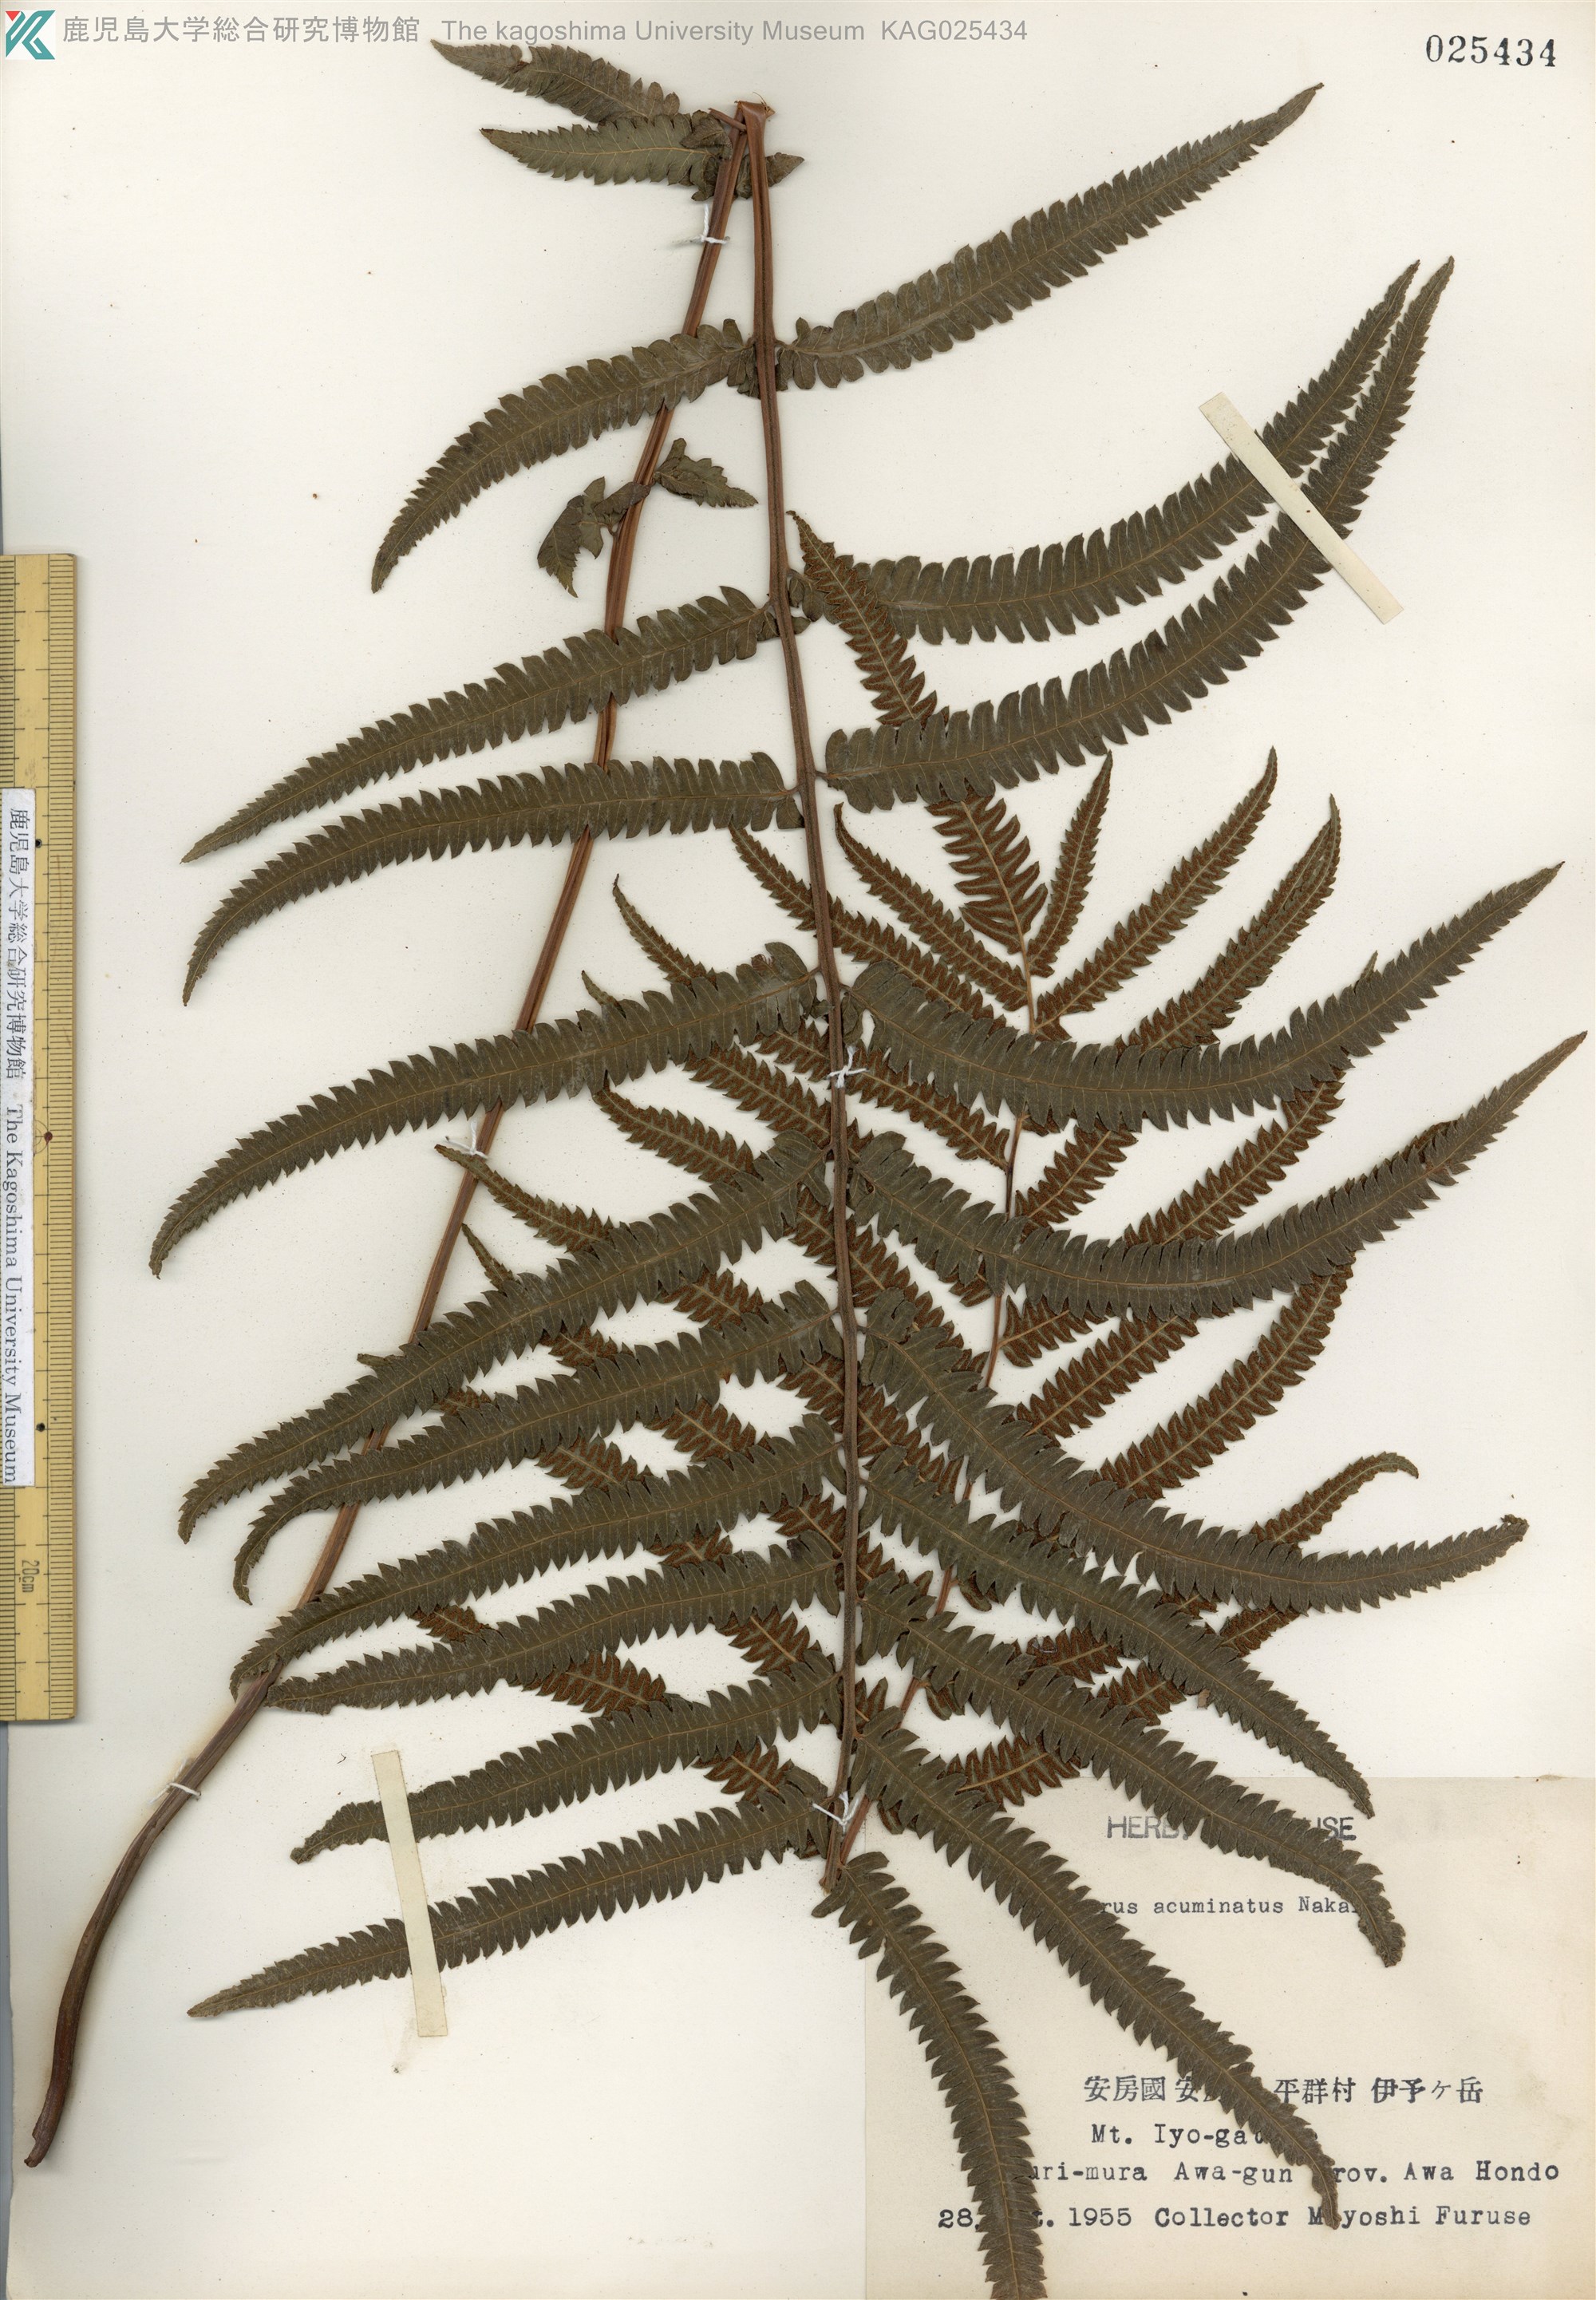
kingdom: Plantae
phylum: Tracheophyta
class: Polypodiopsida
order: Polypodiales
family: Thelypteridaceae
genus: Christella
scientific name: Christella acuminata
